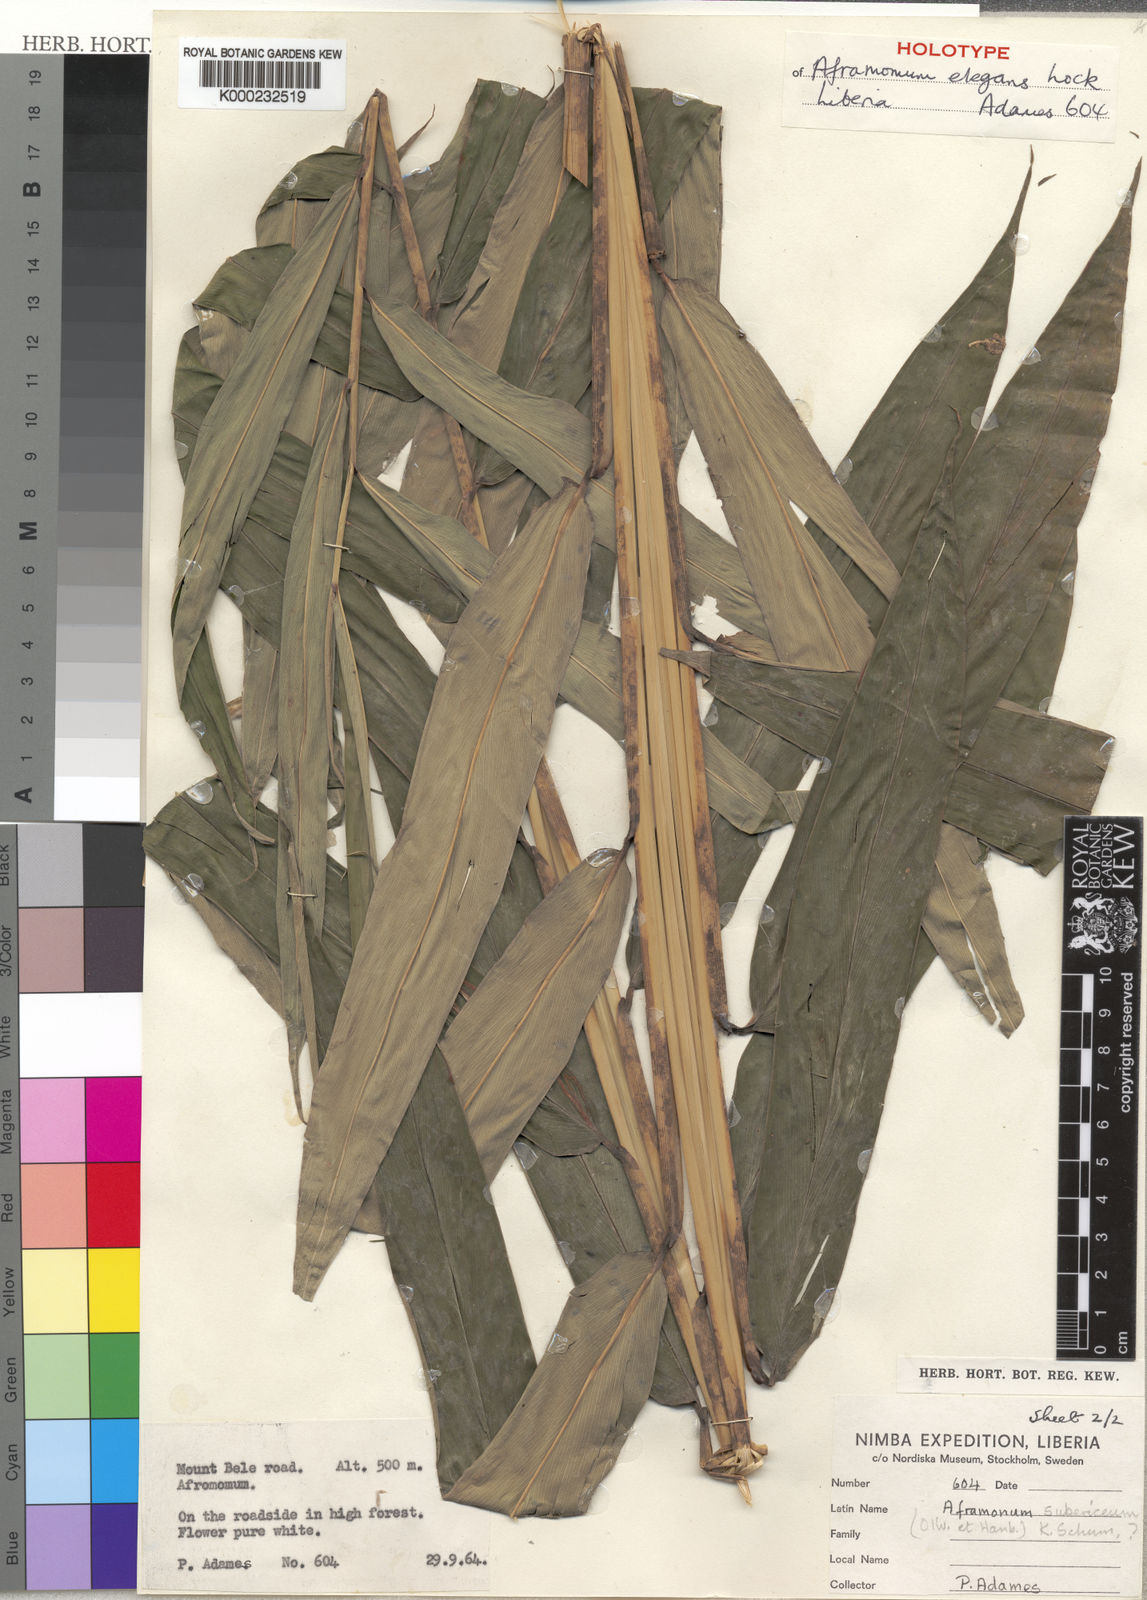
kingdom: Plantae
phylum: Tracheophyta
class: Liliopsida
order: Zingiberales
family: Zingiberaceae
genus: Aframomum
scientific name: Aframomum elegans
